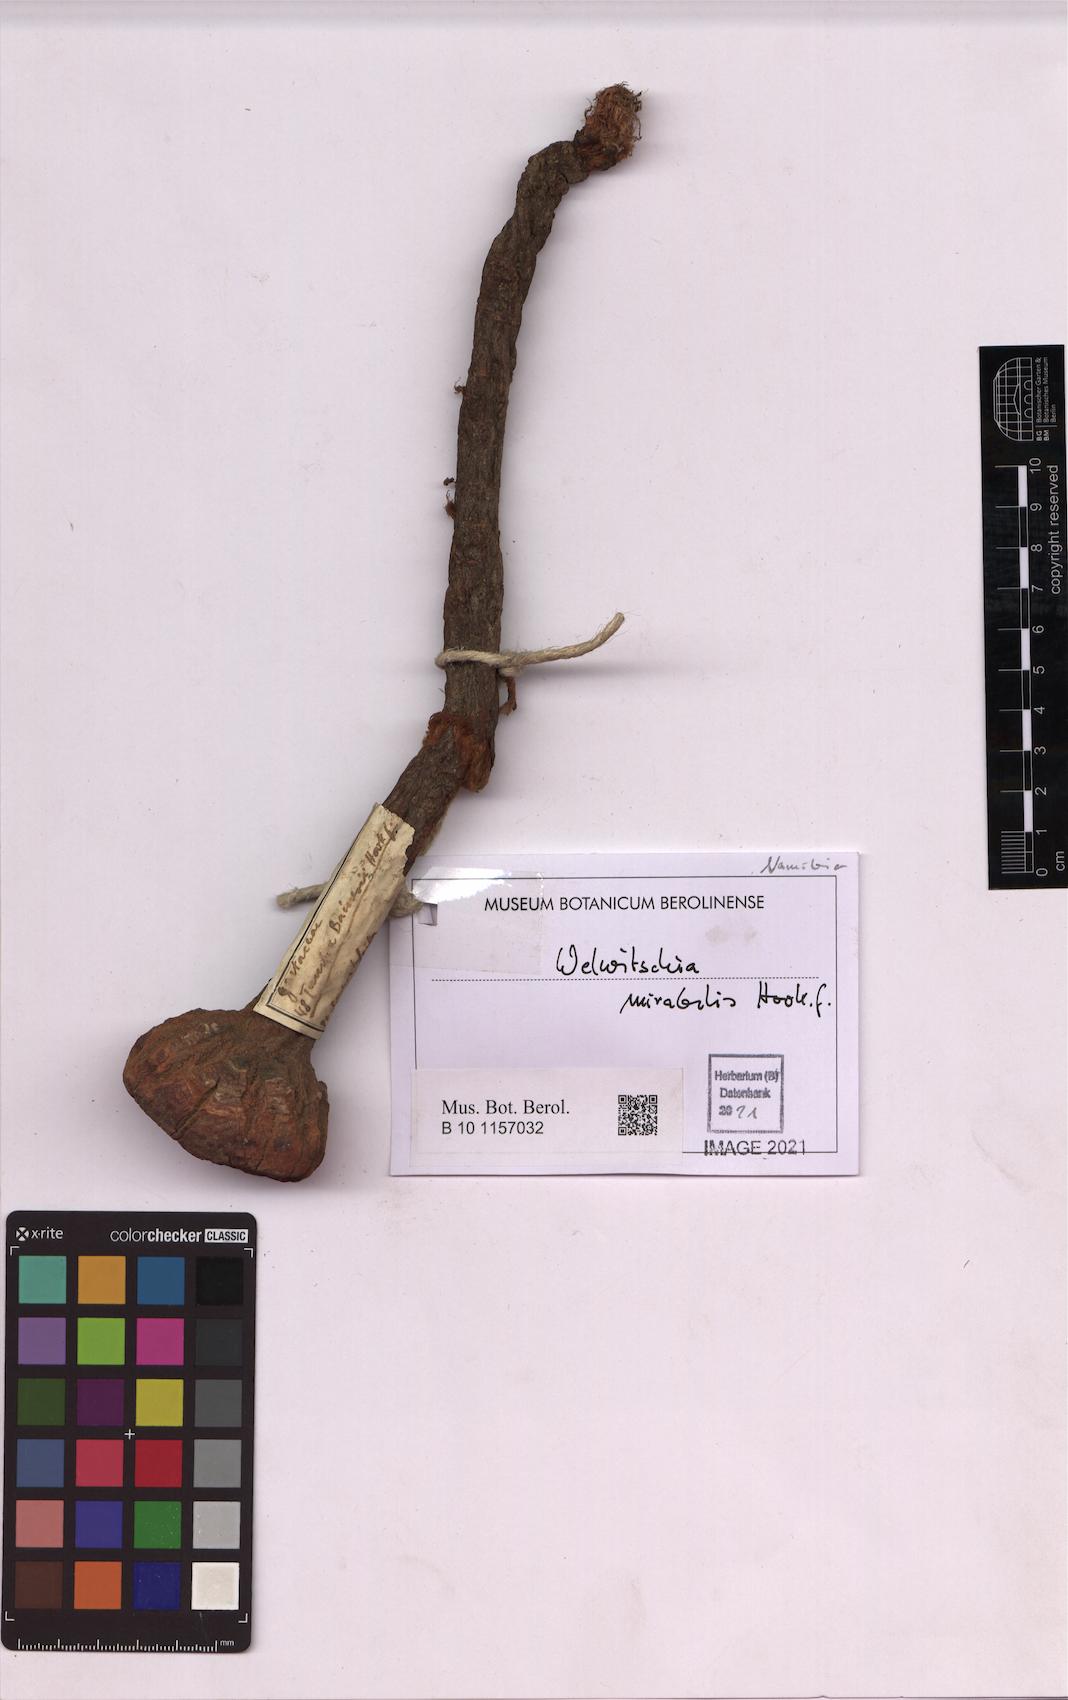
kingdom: Plantae
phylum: Tracheophyta
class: Gnetopsida
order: Welwitschiales
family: Welwitschiaceae
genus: Welwitschia
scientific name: Welwitschia mirabilis
